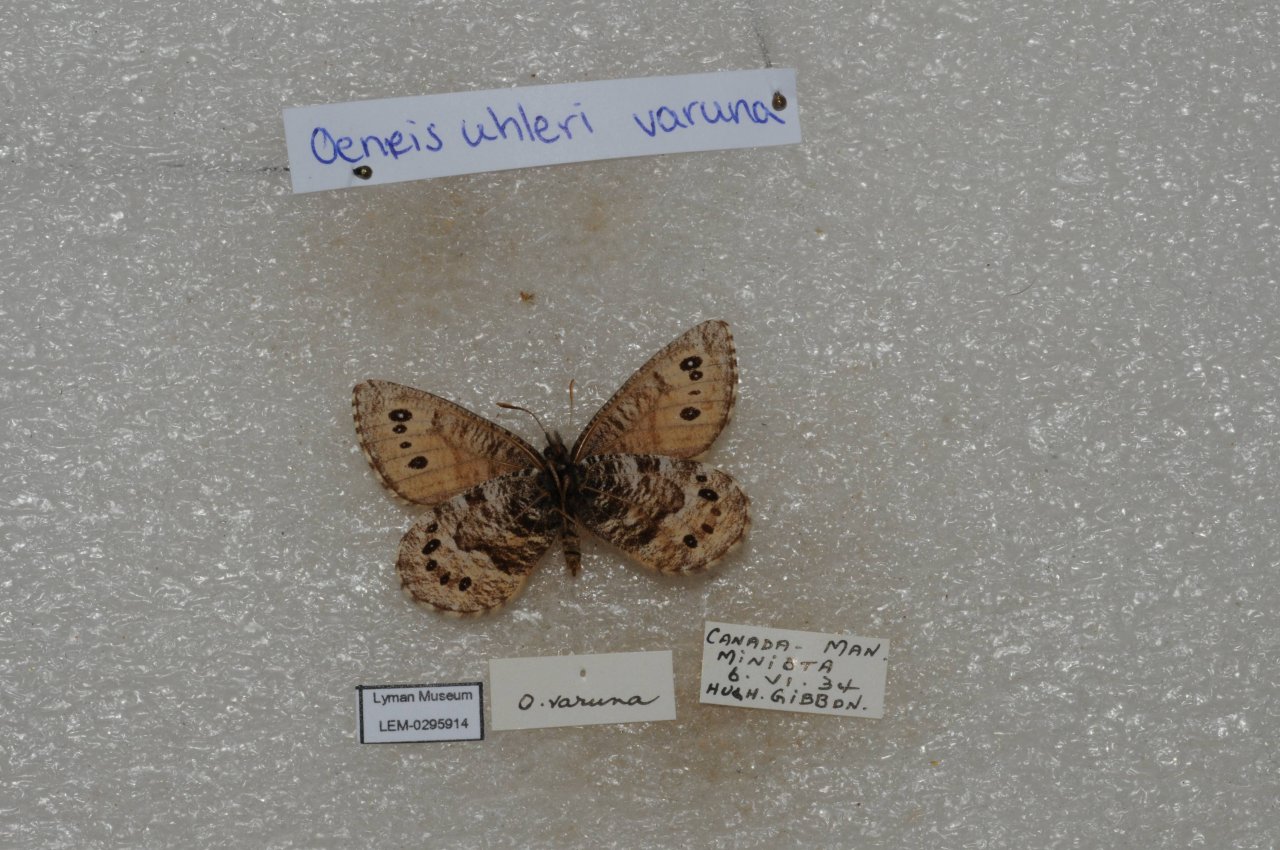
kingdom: Animalia
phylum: Arthropoda
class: Insecta
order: Lepidoptera
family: Nymphalidae
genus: Oeneis
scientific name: Oeneis uhleri
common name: Uhler's Arctic
